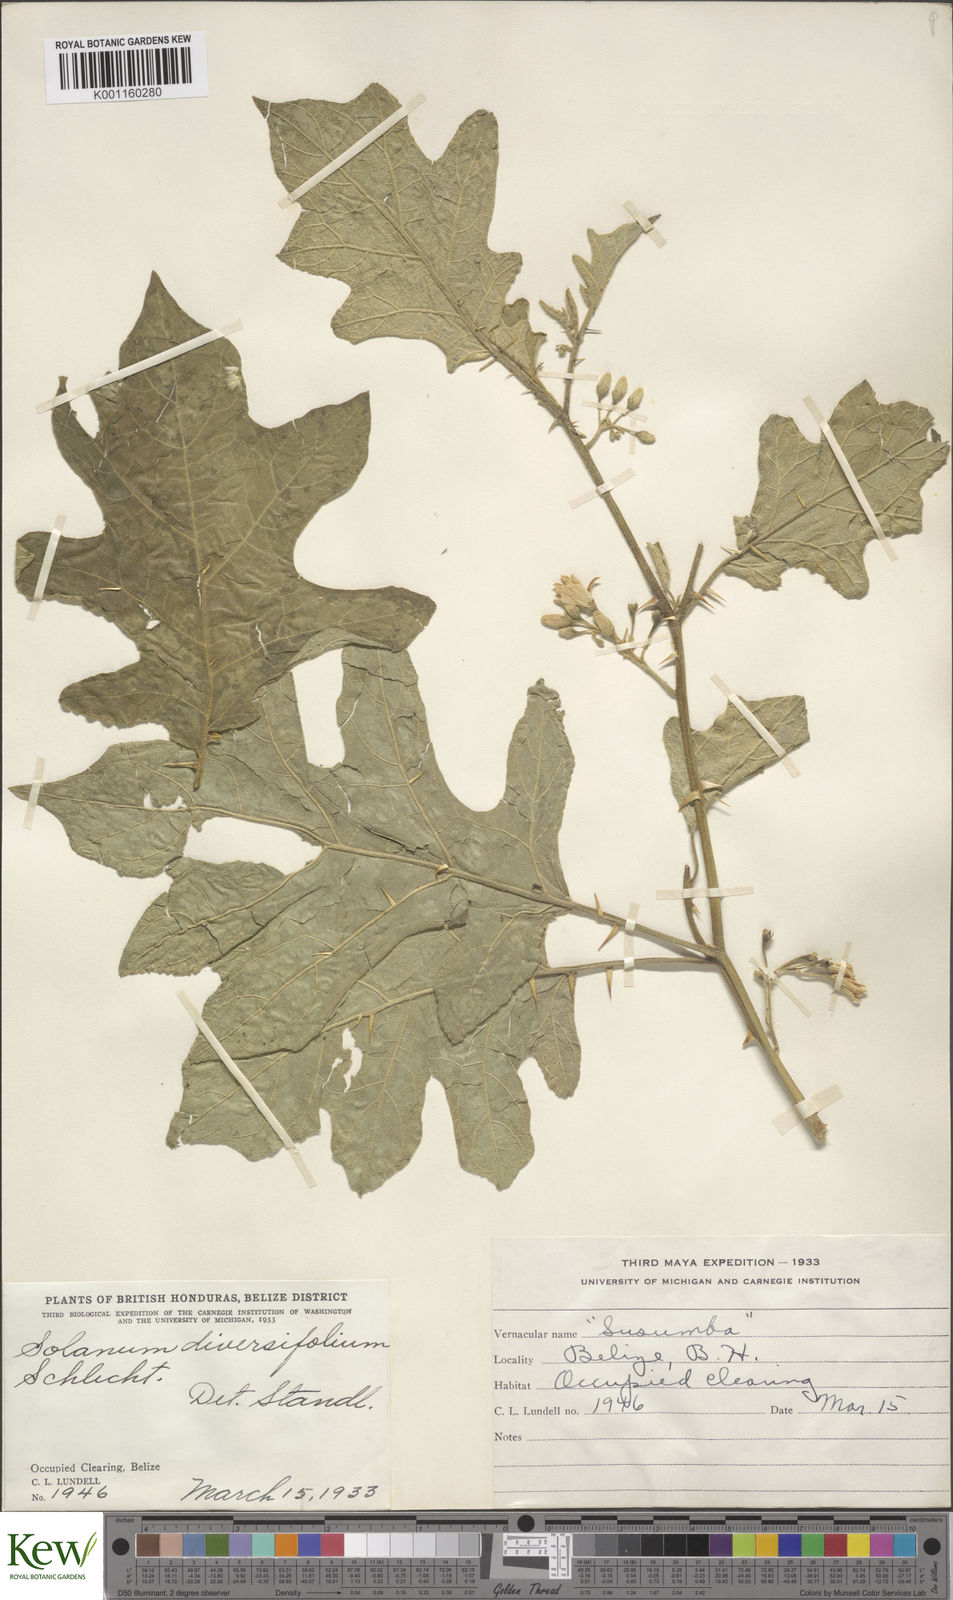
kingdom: Plantae
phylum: Tracheophyta
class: Magnoliopsida
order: Solanales
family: Solanaceae
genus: Solanum
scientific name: Solanum melissarum
